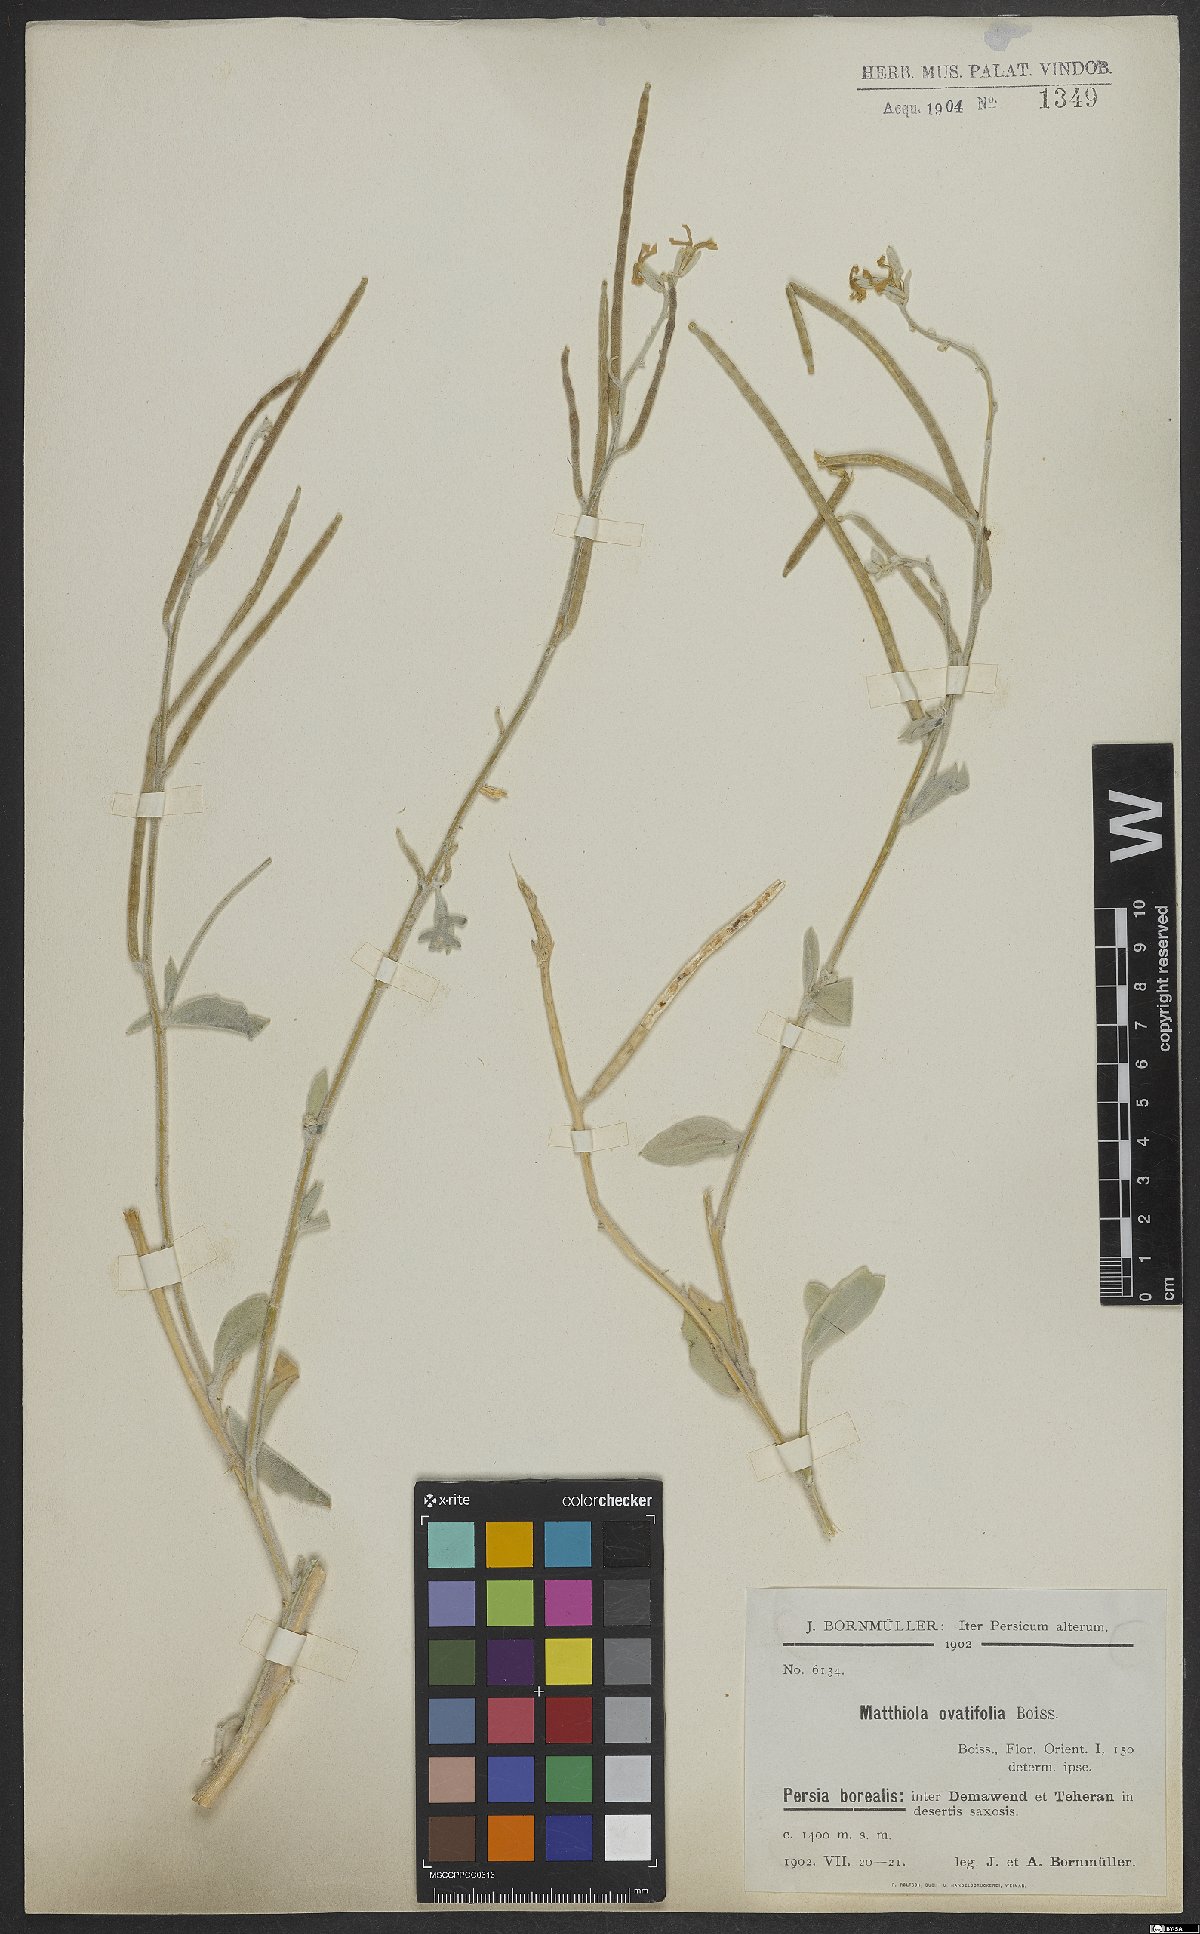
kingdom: Plantae
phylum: Tracheophyta
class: Magnoliopsida
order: Brassicales
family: Brassicaceae
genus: Matthiola
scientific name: Matthiola ovatifolia
